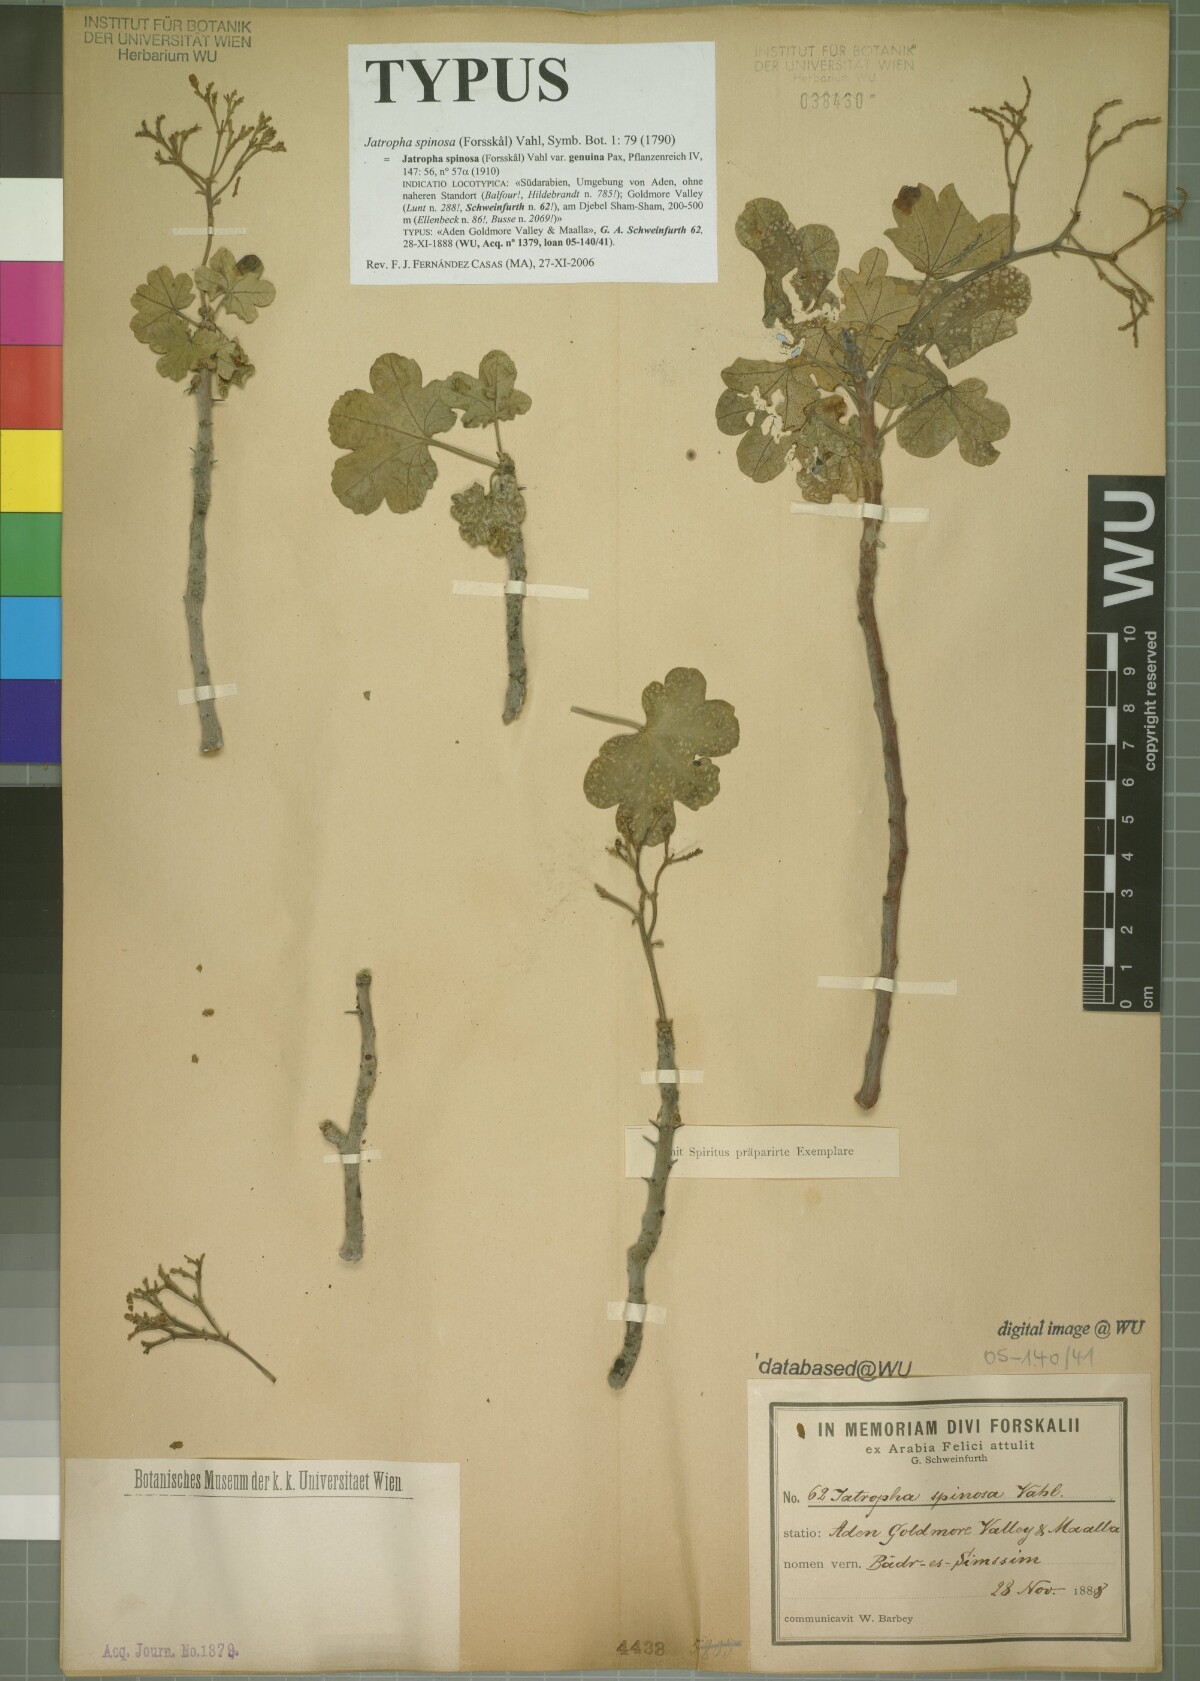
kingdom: Plantae
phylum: Tracheophyta
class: Magnoliopsida
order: Malpighiales
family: Euphorbiaceae
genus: Jatropha
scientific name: Jatropha spinosa
